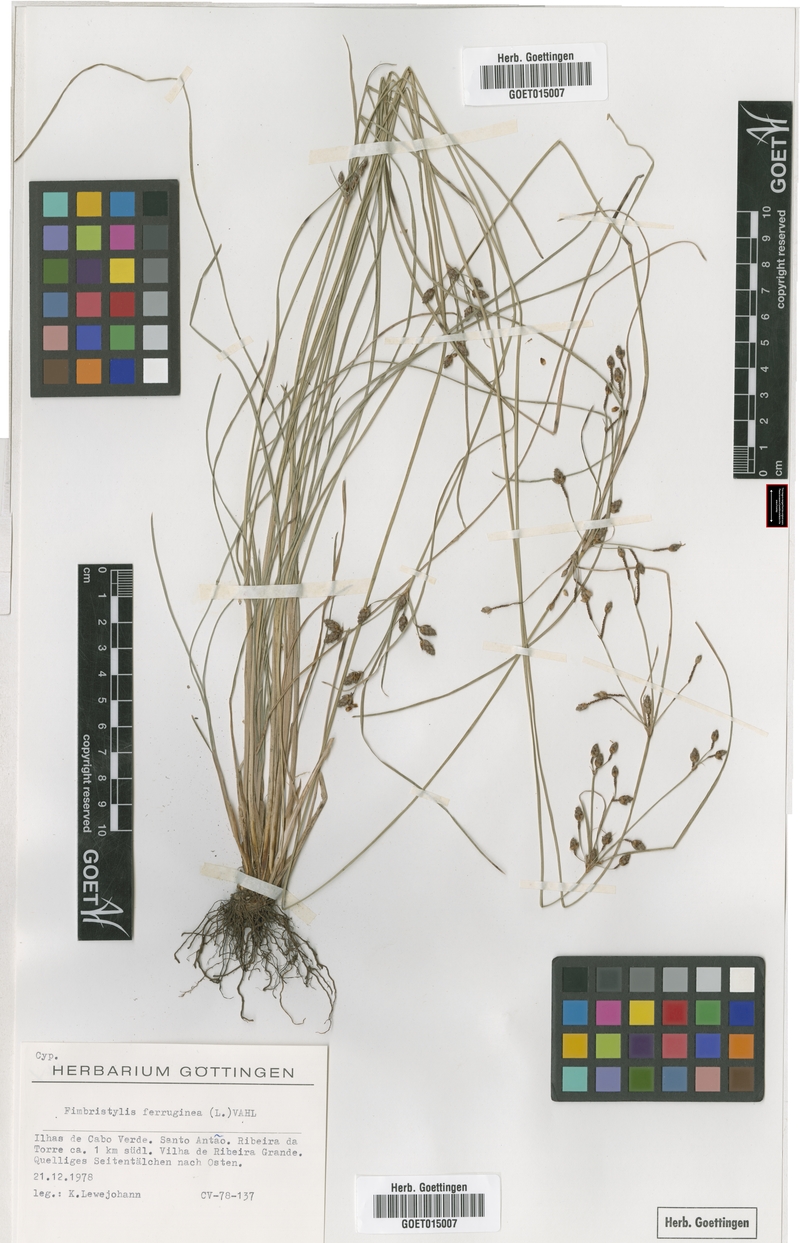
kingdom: Plantae
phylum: Tracheophyta
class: Liliopsida
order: Poales
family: Cyperaceae
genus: Fimbristylis
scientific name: Fimbristylis ferruginea
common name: West indian fimbry
